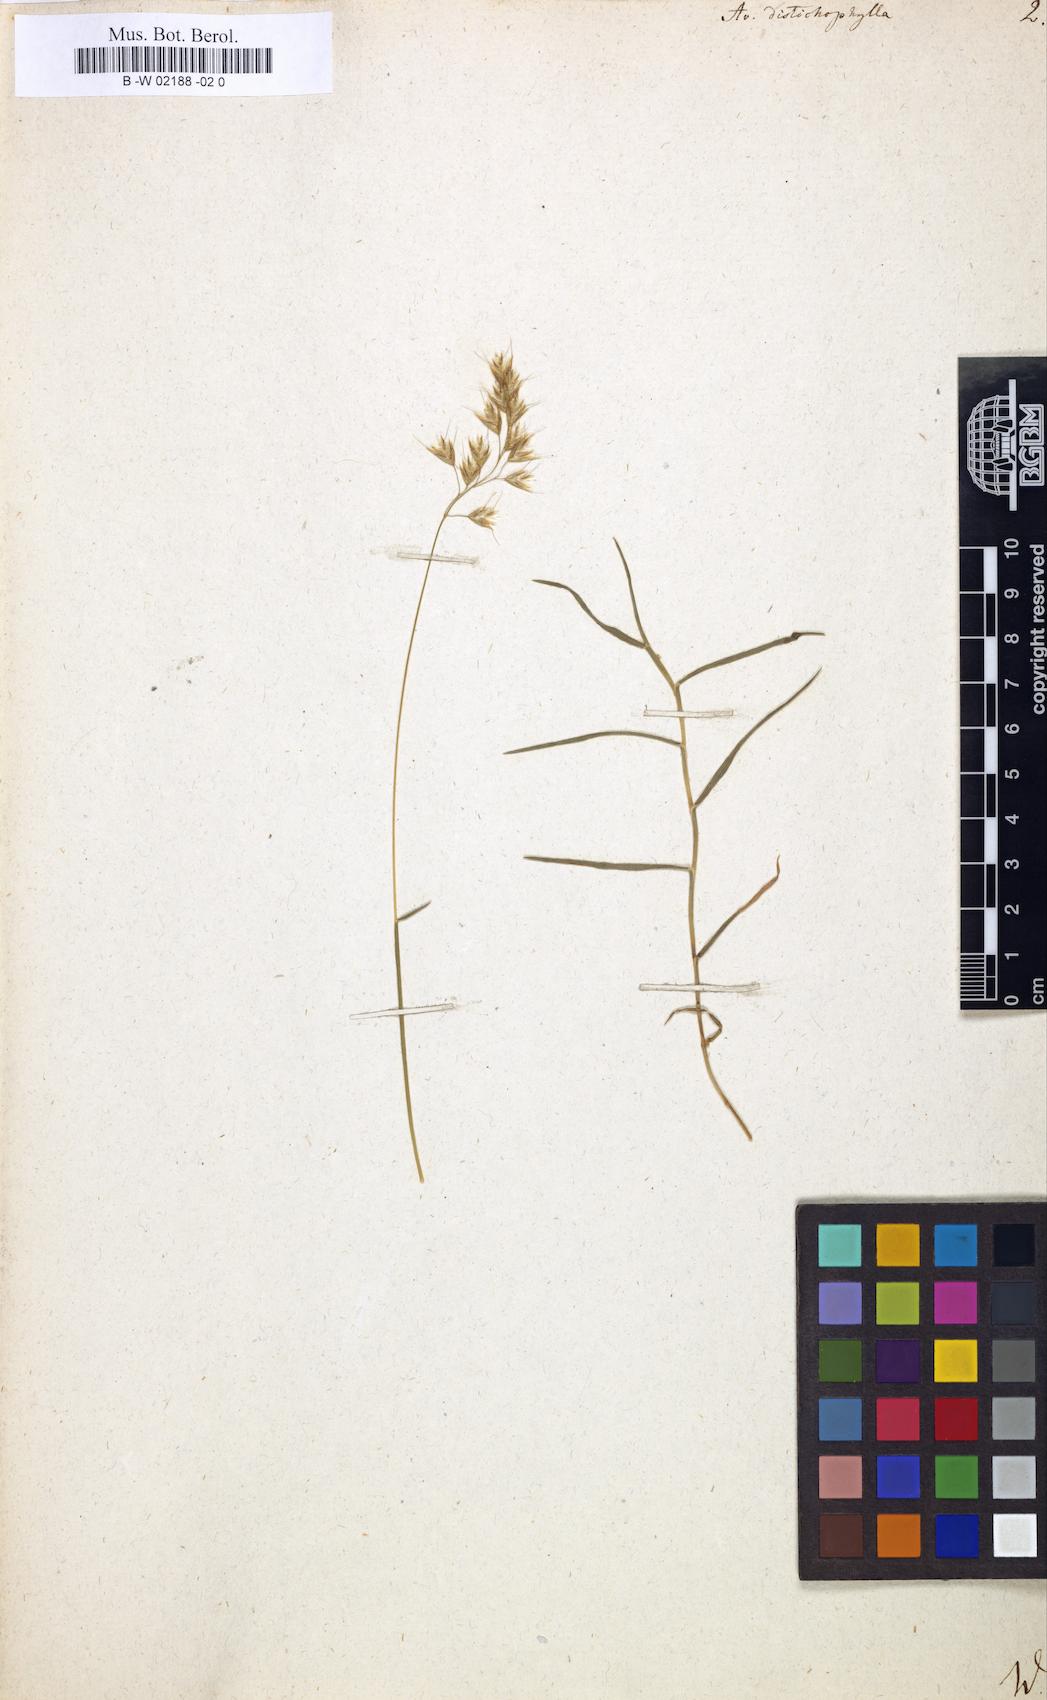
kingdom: Plantae
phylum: Tracheophyta
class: Liliopsida
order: Poales
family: Poaceae
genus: Acrospelion
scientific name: Acrospelion distichophyllum
